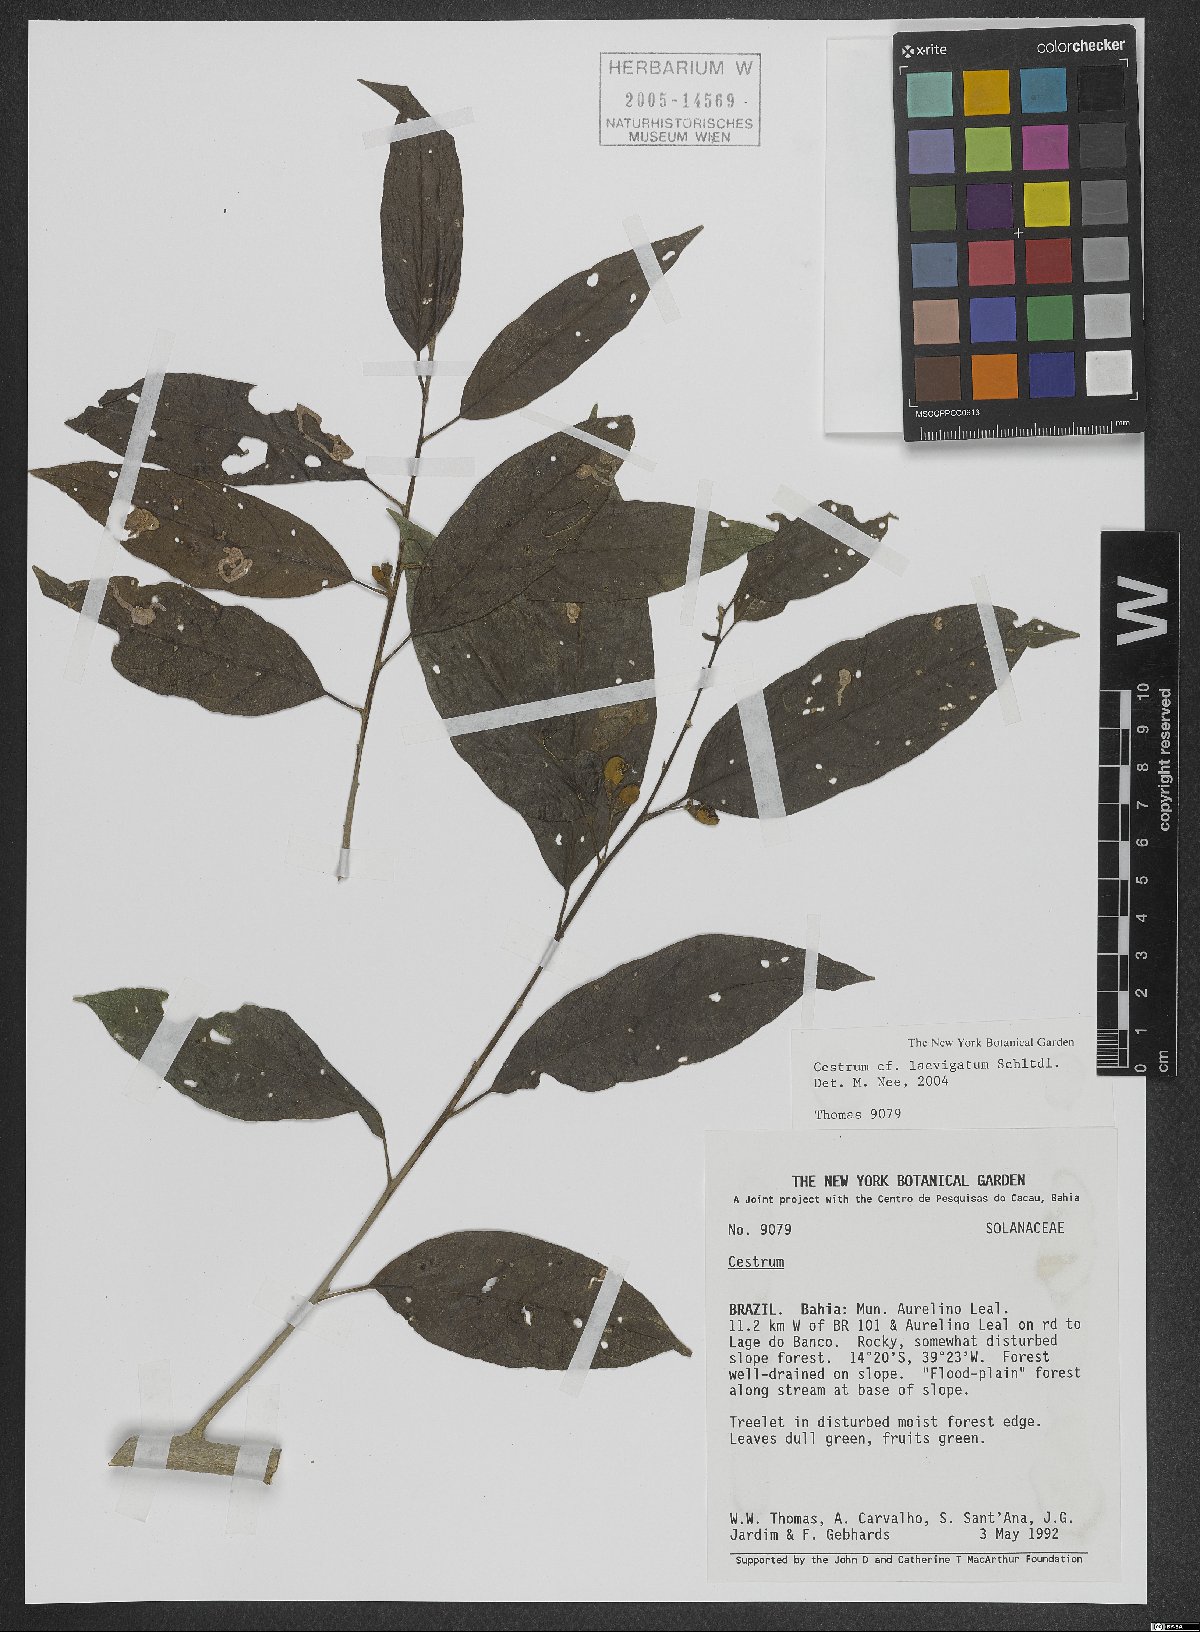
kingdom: Plantae
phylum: Tracheophyta
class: Magnoliopsida
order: Solanales
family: Solanaceae
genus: Cestrum
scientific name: Cestrum laevigatum
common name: Inkberry
